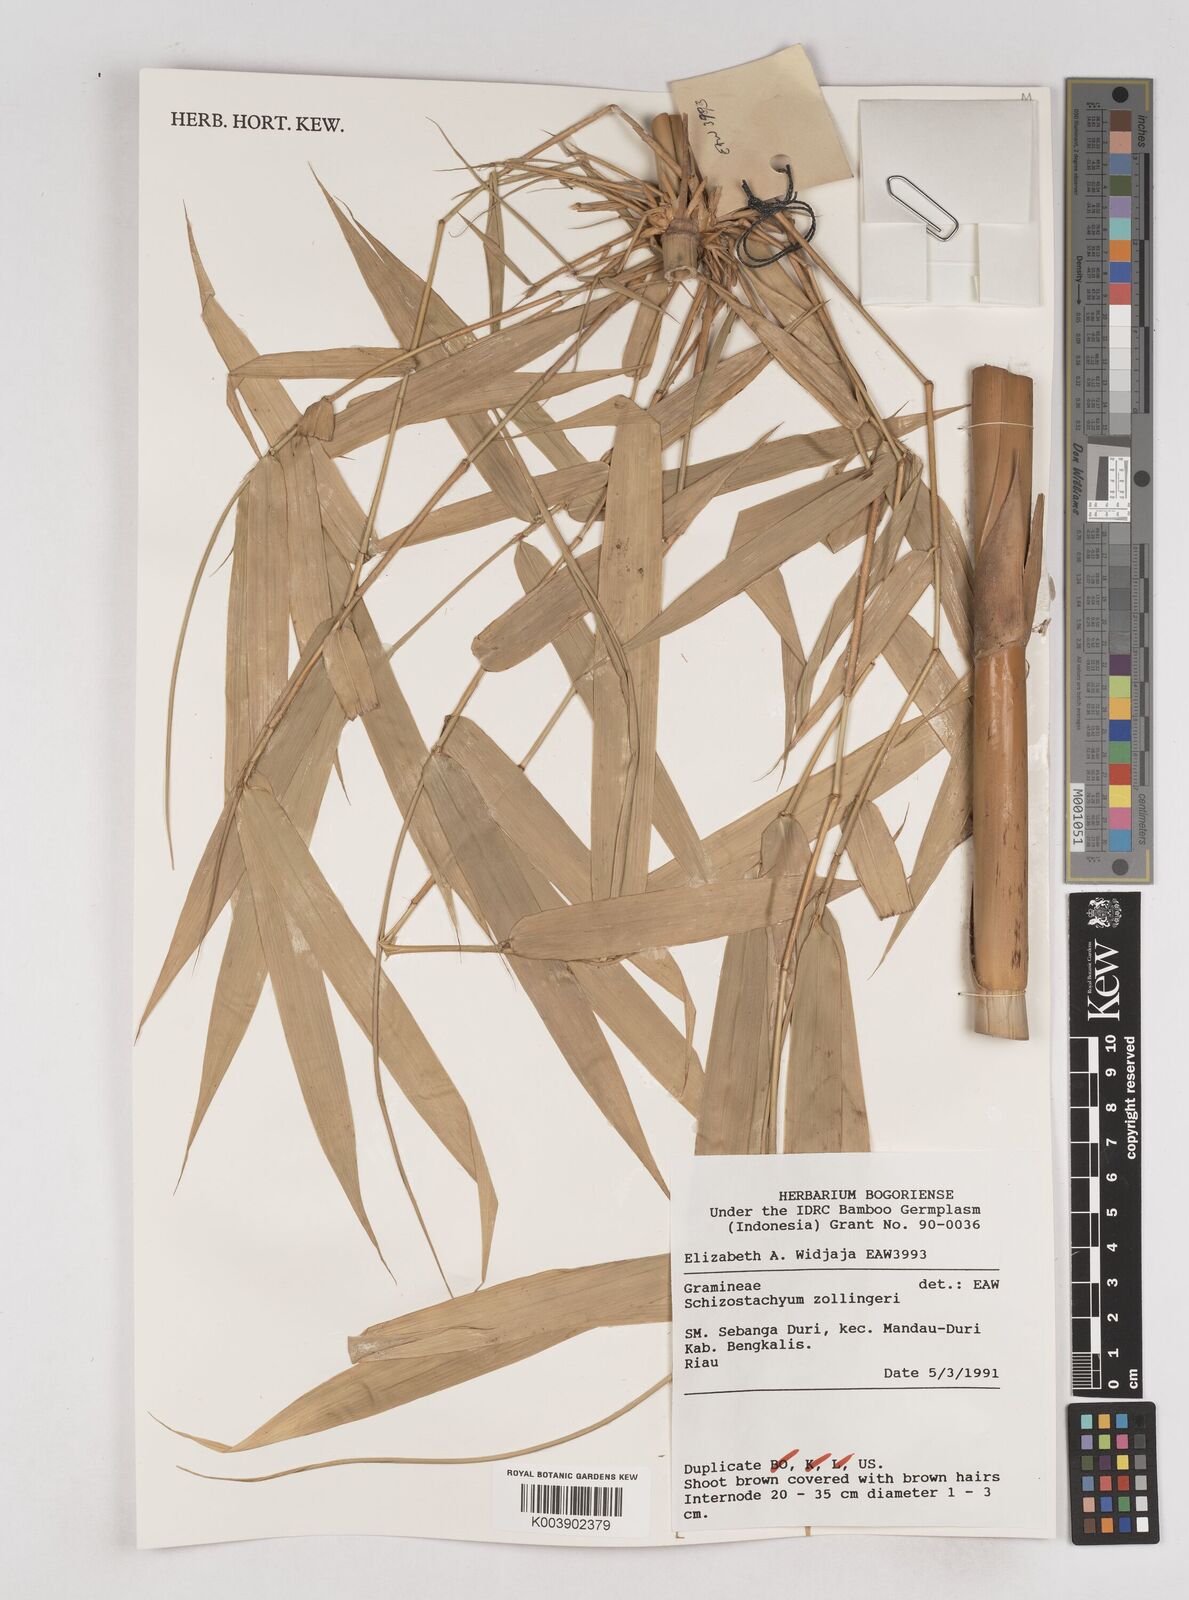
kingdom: Plantae
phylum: Tracheophyta
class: Liliopsida
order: Poales
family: Poaceae
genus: Schizostachyum
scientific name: Schizostachyum zollingeri
